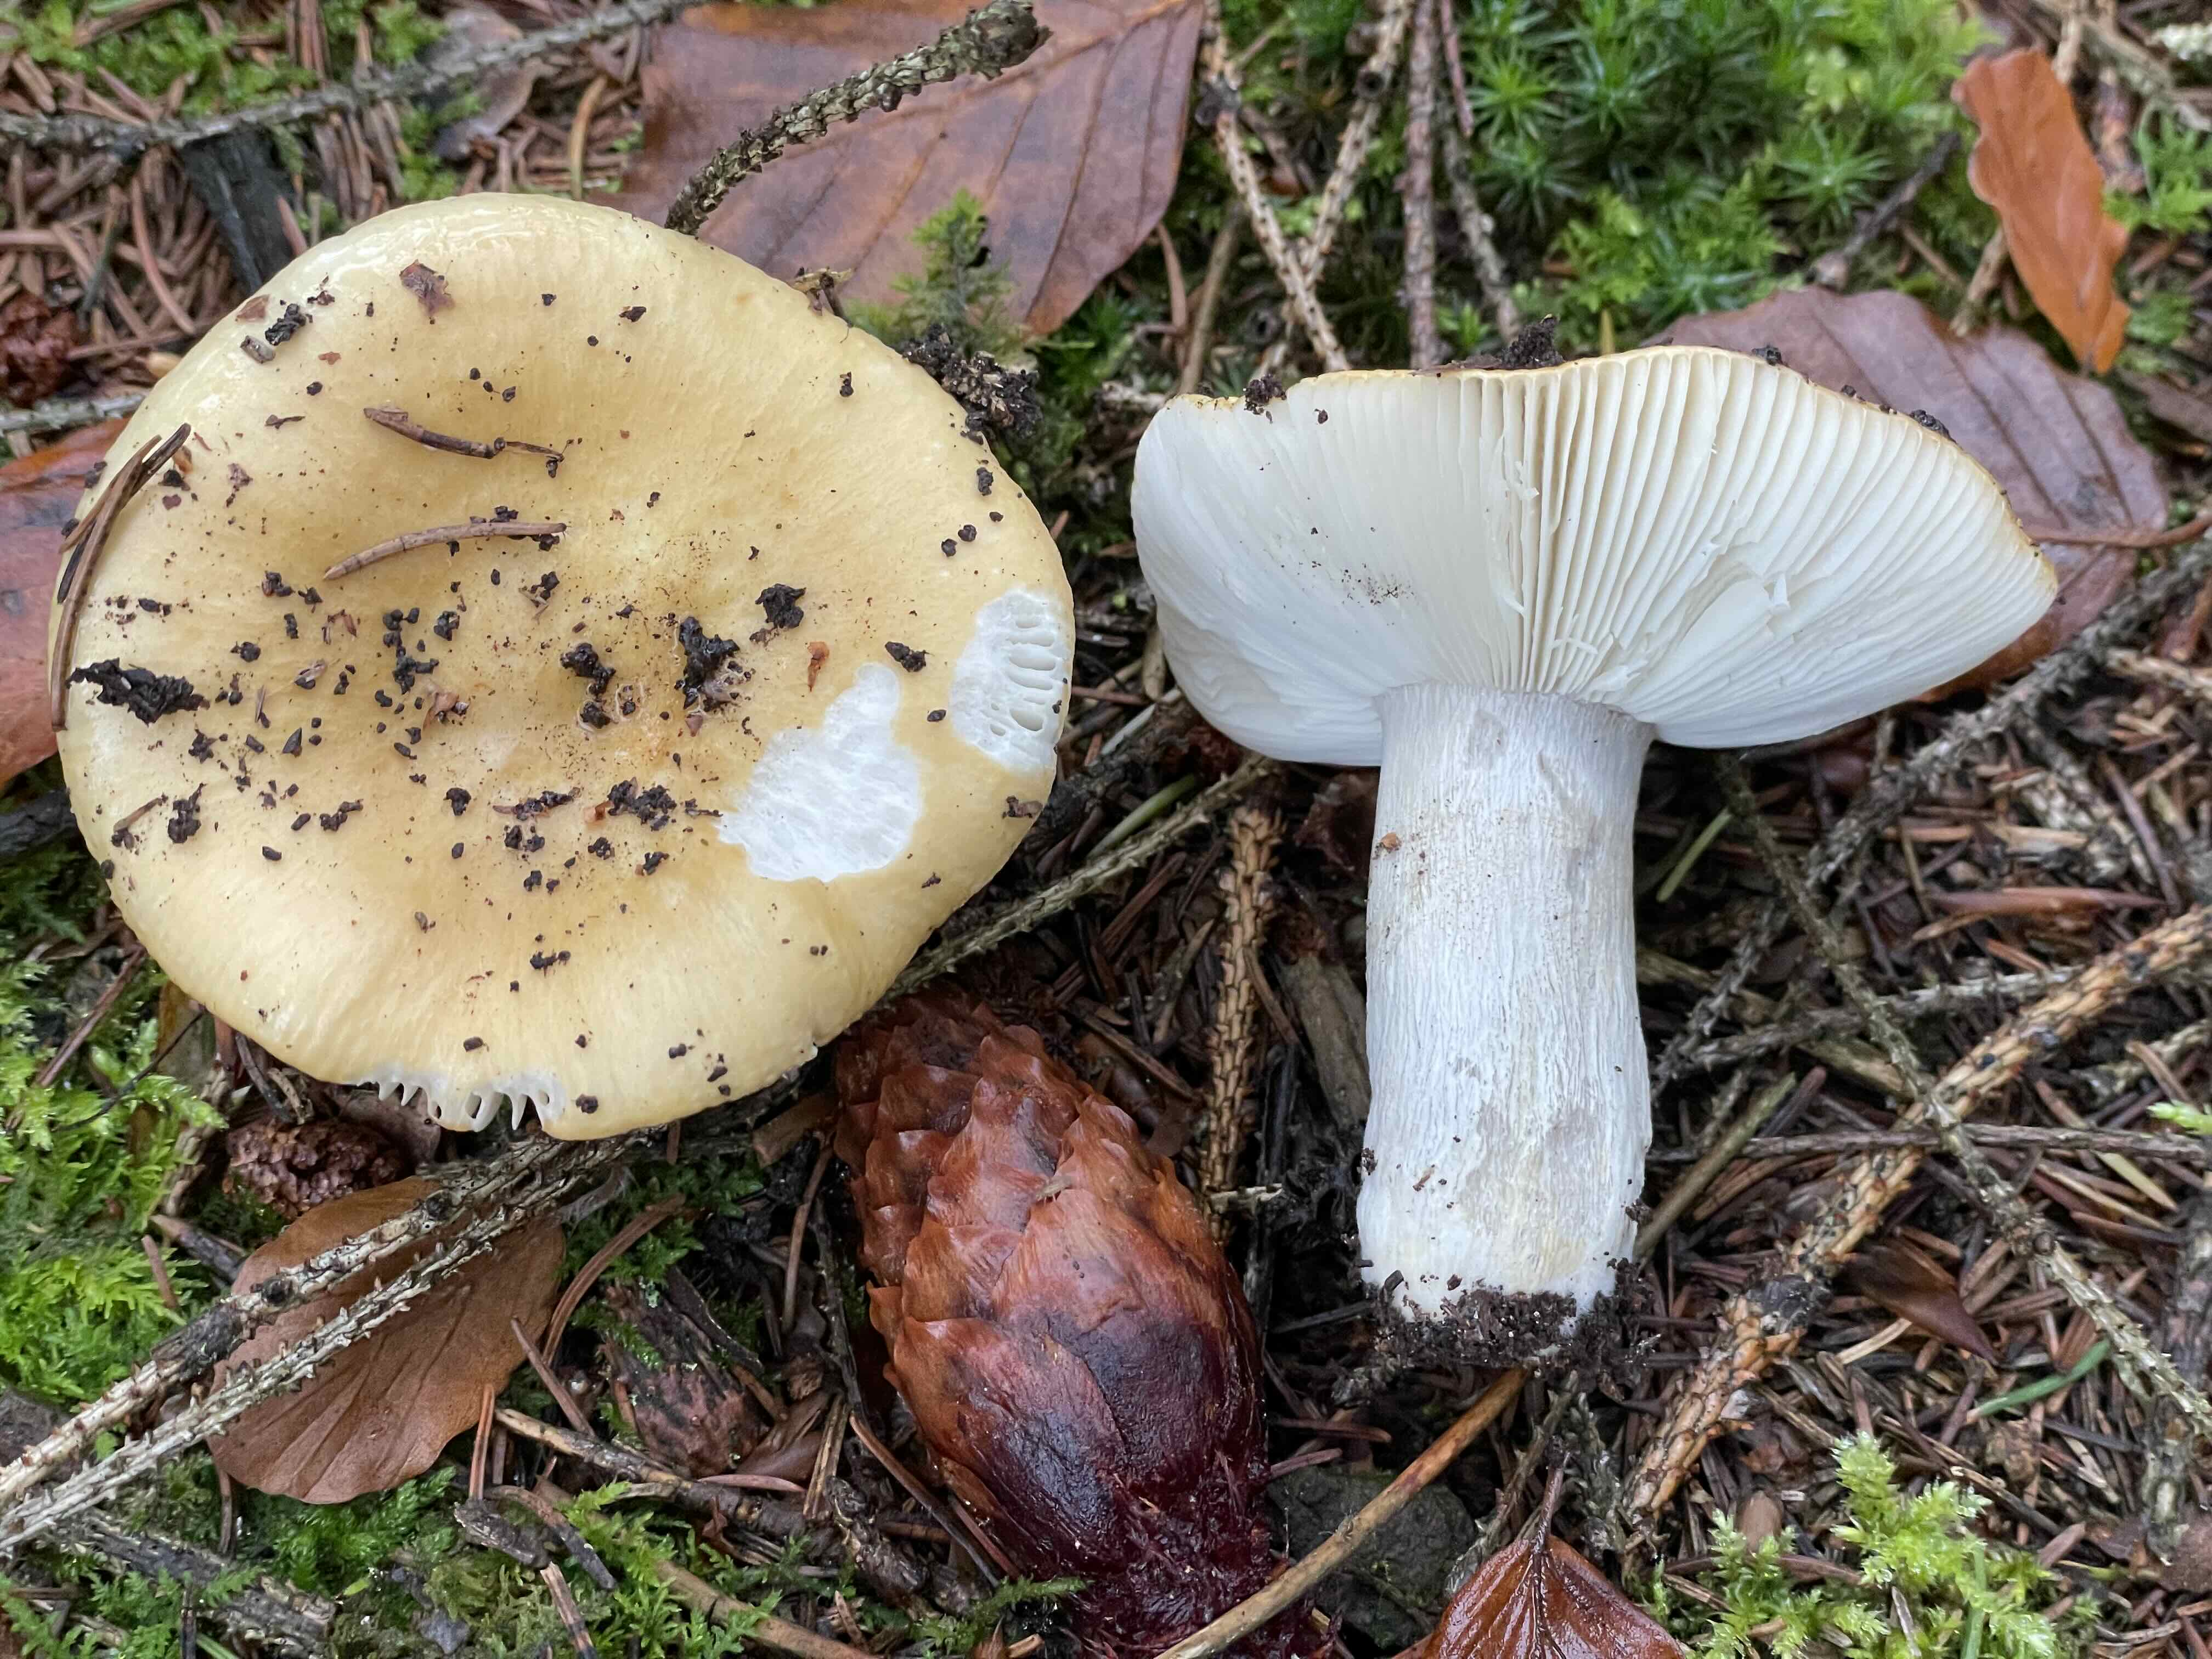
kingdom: Fungi
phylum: Basidiomycota
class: Agaricomycetes
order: Russulales
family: Russulaceae
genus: Russula
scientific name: Russula ochroleuca
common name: okkergul skørhat
